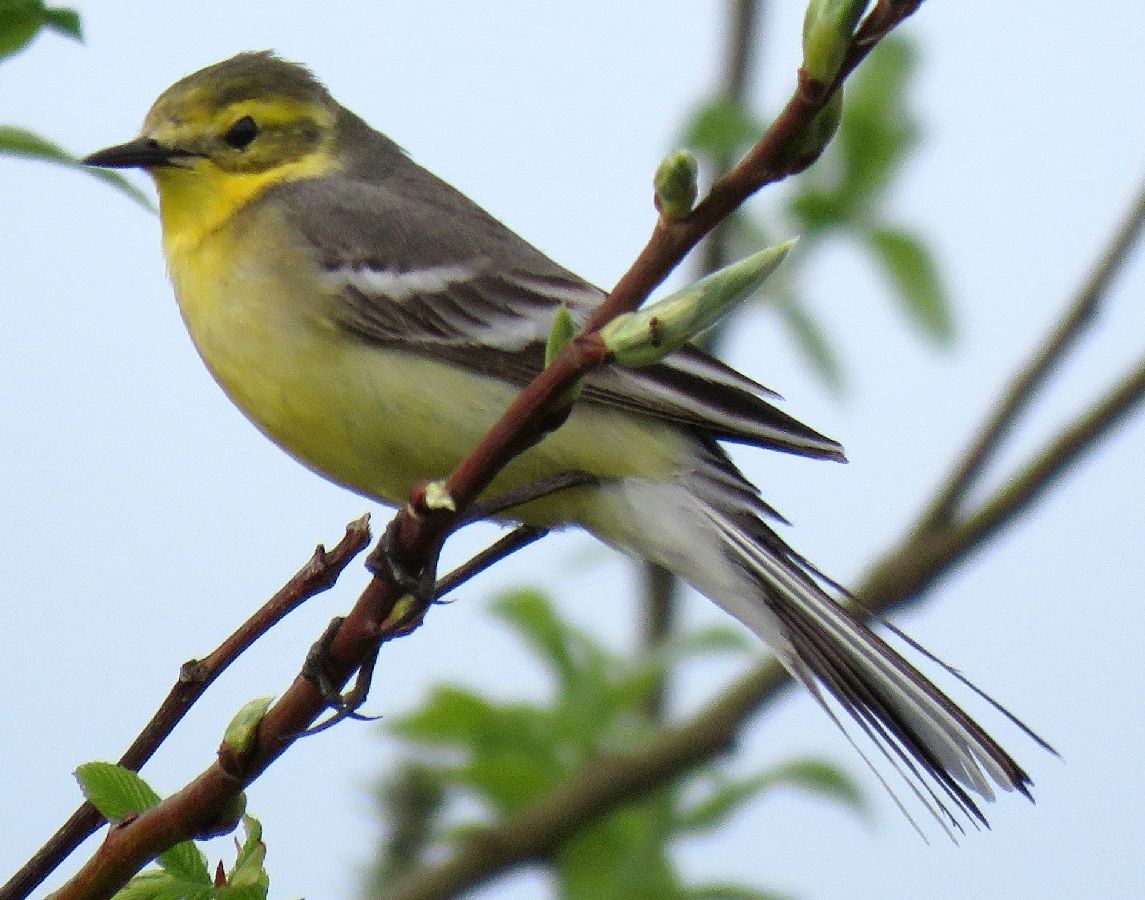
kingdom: Animalia
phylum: Chordata
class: Aves
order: Passeriformes
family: Motacillidae
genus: Motacilla
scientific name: Motacilla citreola
